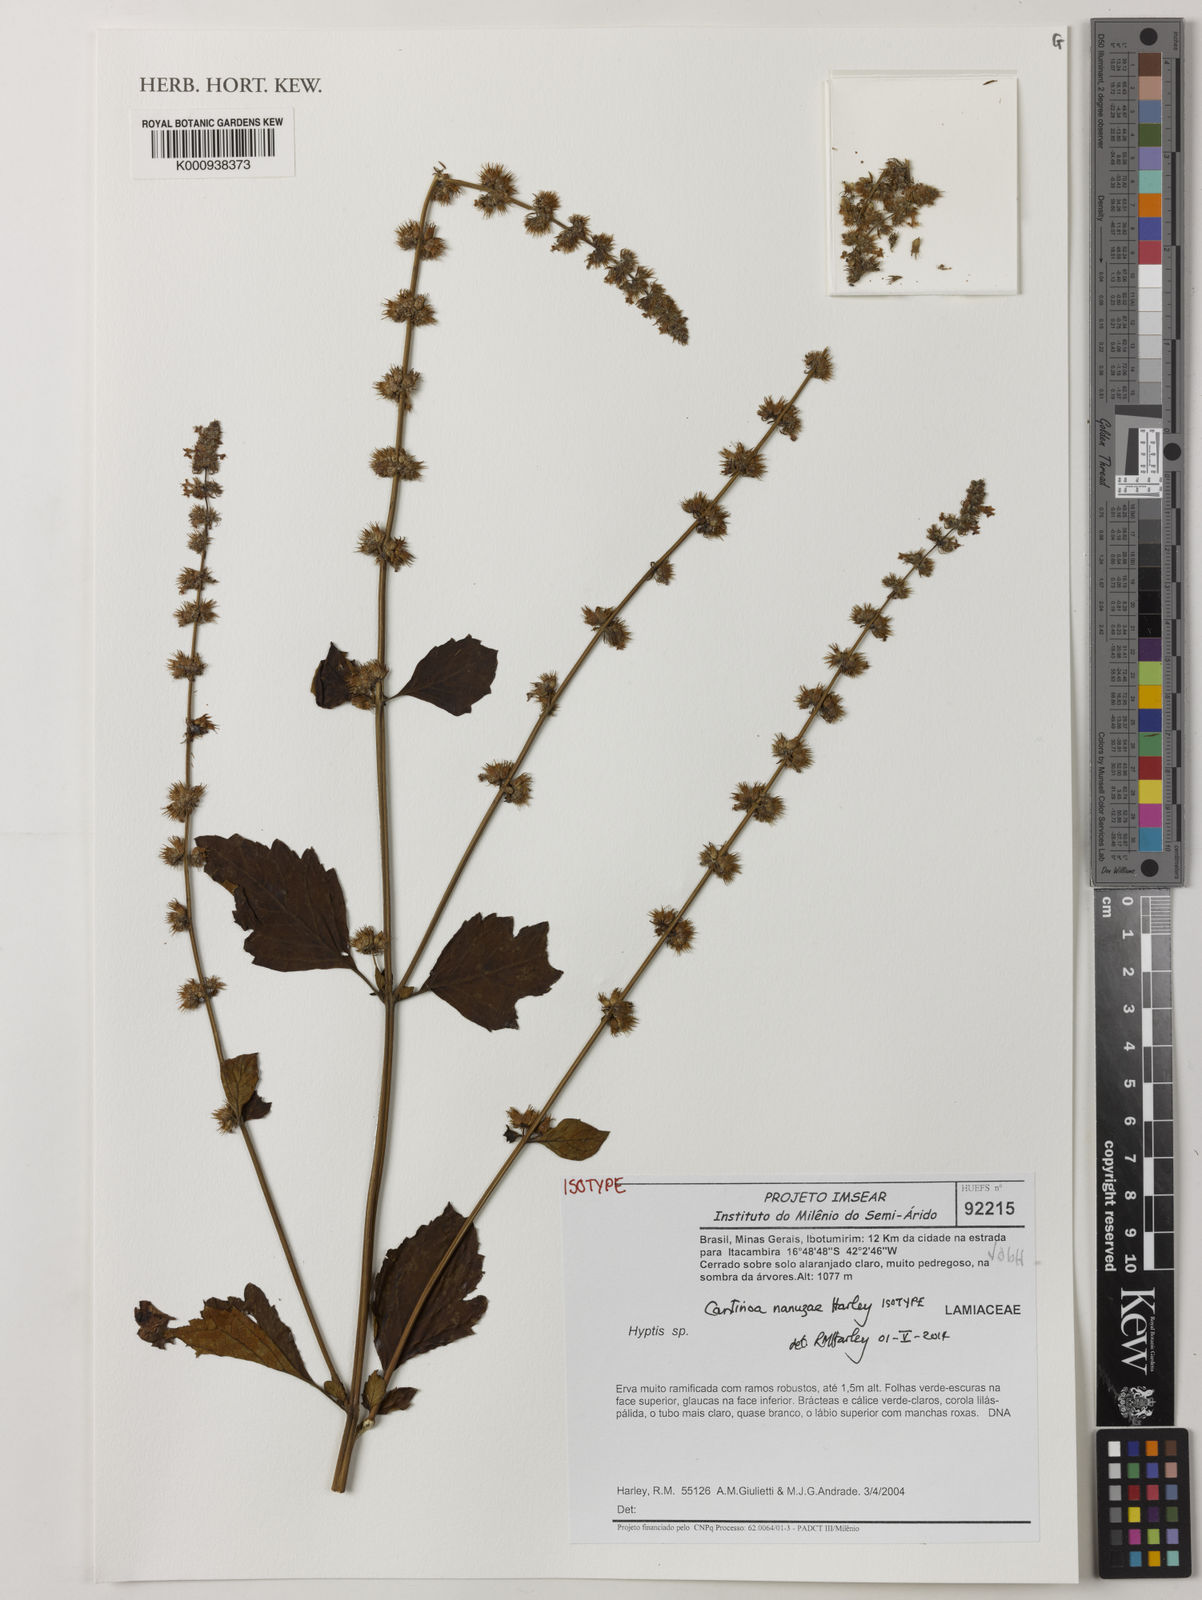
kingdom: Plantae
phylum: Tracheophyta
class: Magnoliopsida
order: Lamiales
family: Lamiaceae
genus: Cantinoa
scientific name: Cantinoa nanuzae
